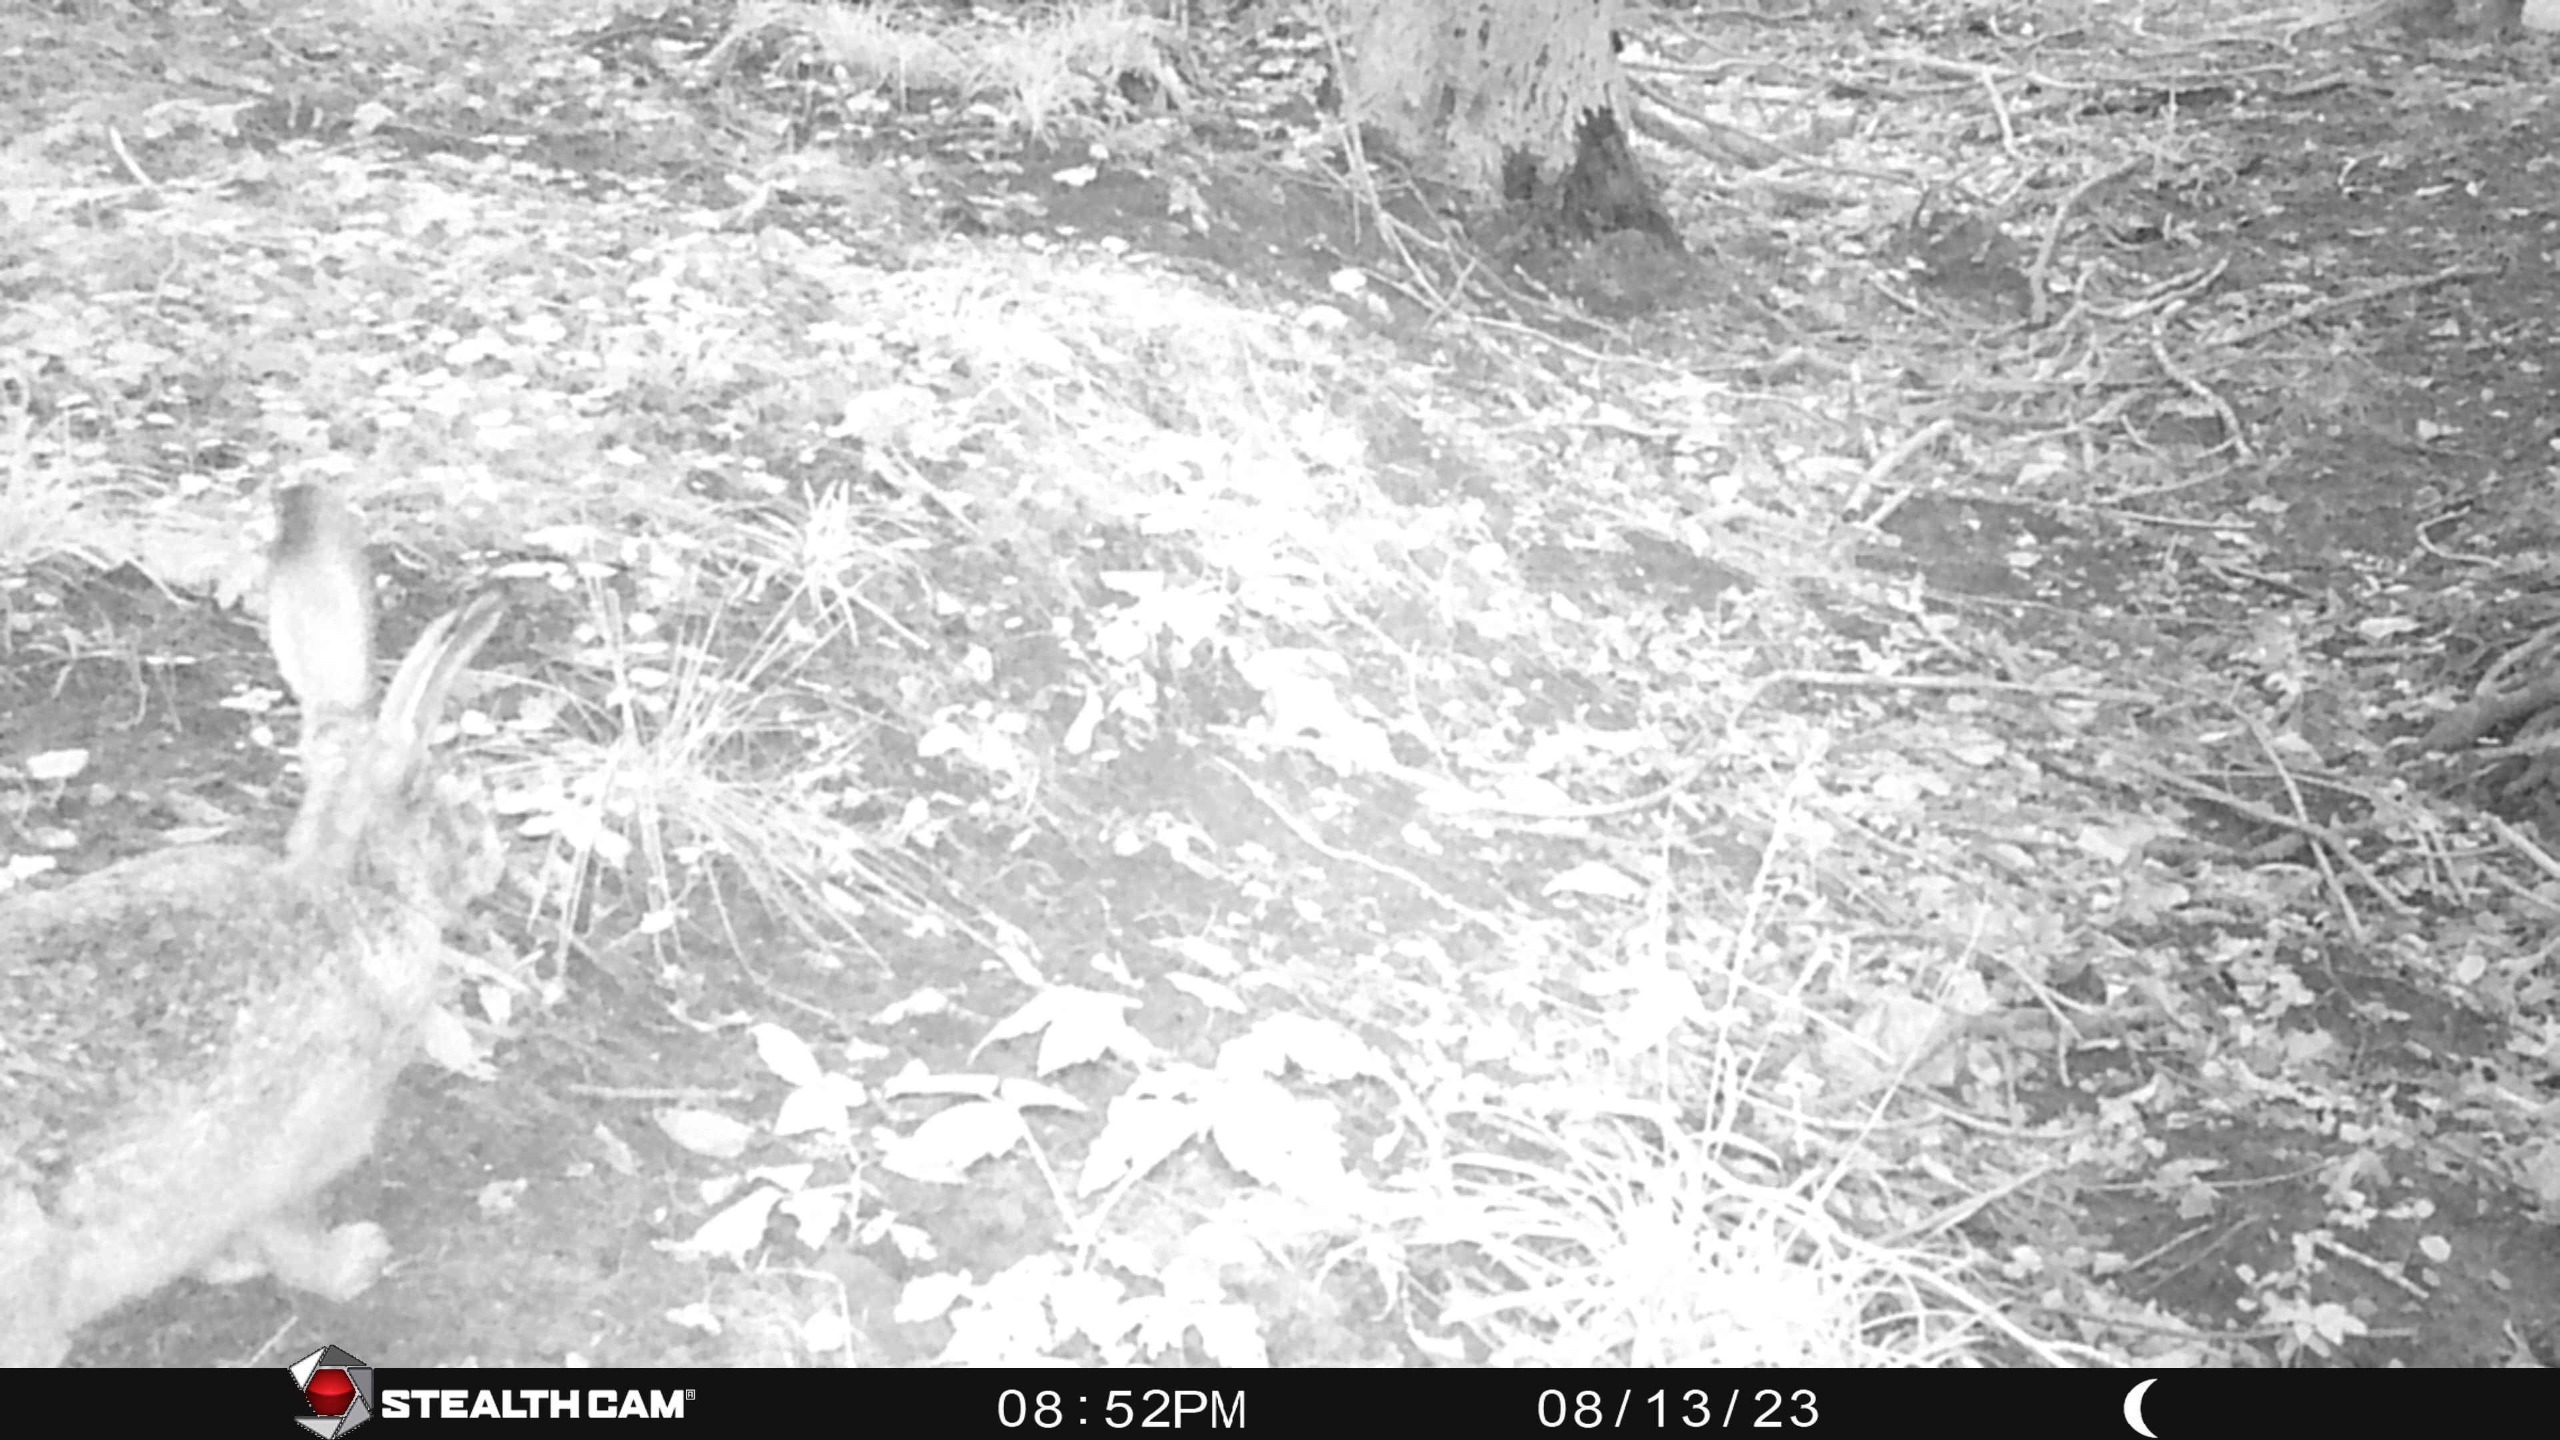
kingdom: Animalia
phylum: Chordata
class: Mammalia
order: Lagomorpha
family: Leporidae
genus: Lepus
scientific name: Lepus europaeus
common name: Hare
